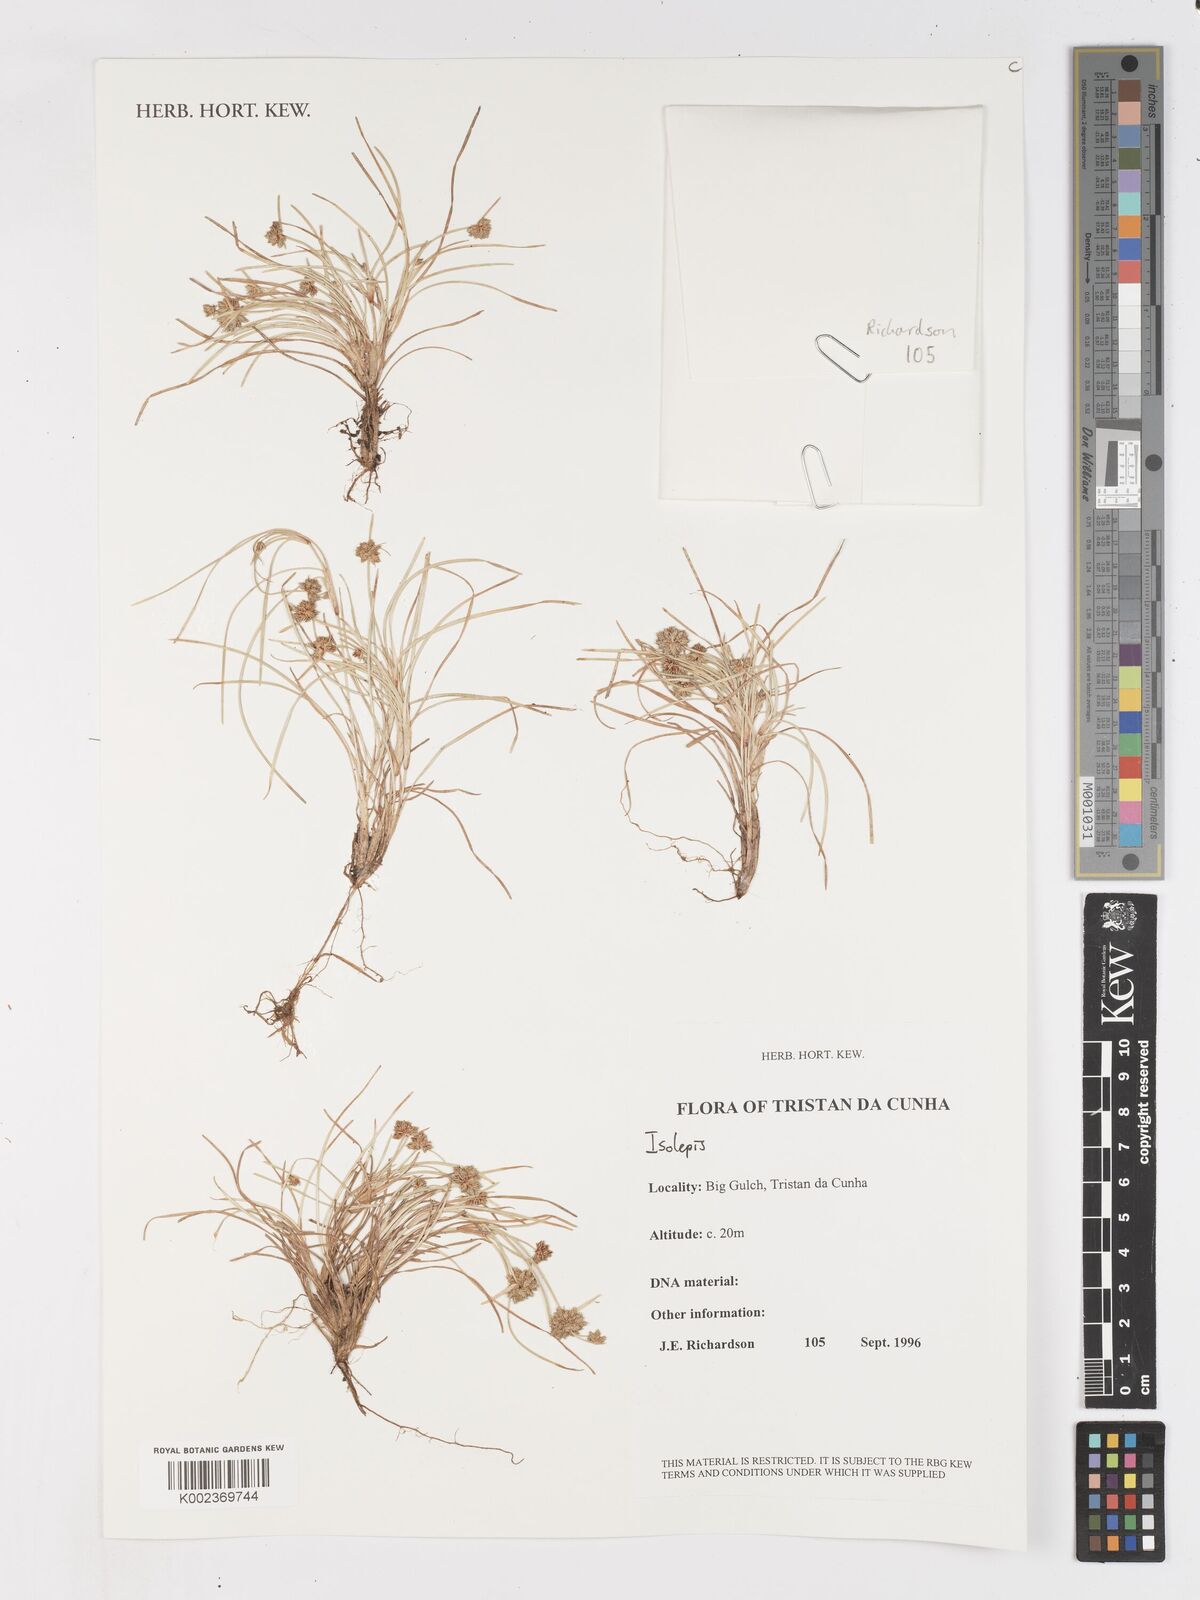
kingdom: Plantae
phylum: Tracheophyta
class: Liliopsida
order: Poales
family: Cyperaceae
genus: Isolepis
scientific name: Isolepis
